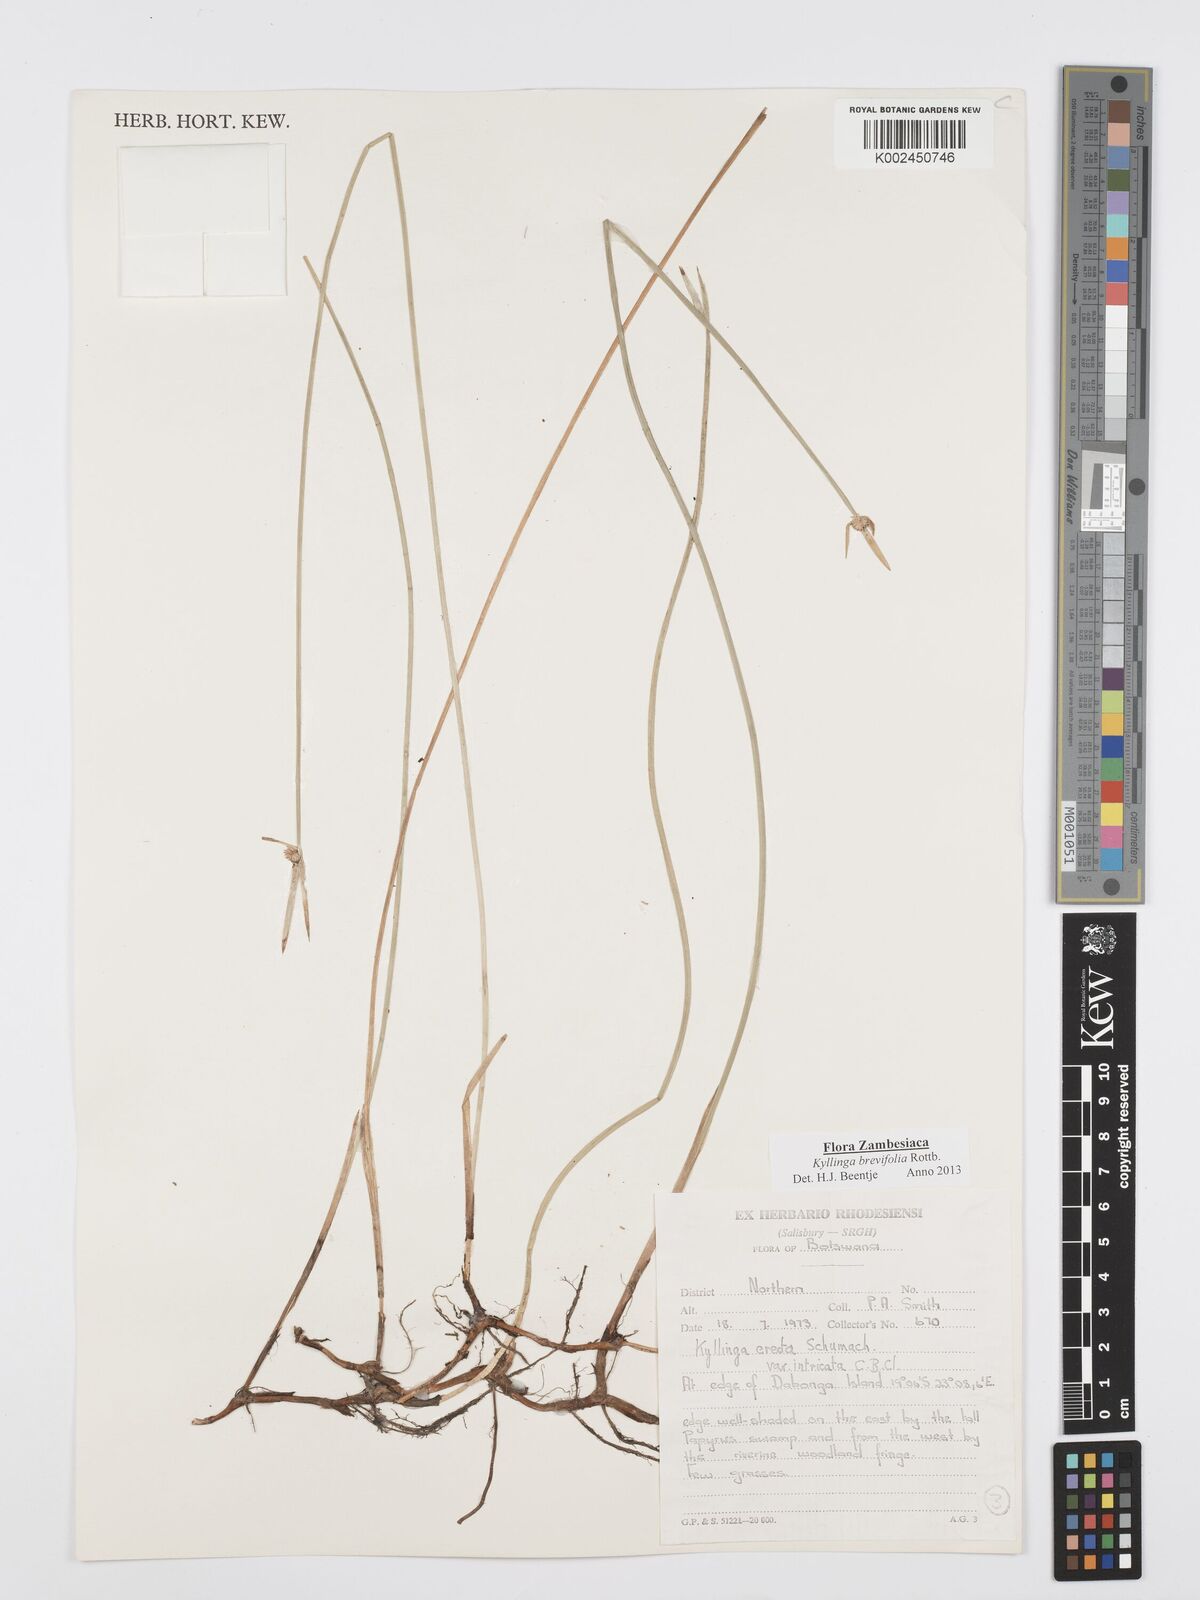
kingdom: Plantae
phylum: Tracheophyta
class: Liliopsida
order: Poales
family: Cyperaceae
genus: Cyperus
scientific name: Cyperus brevifolius
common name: Globe kyllinga
